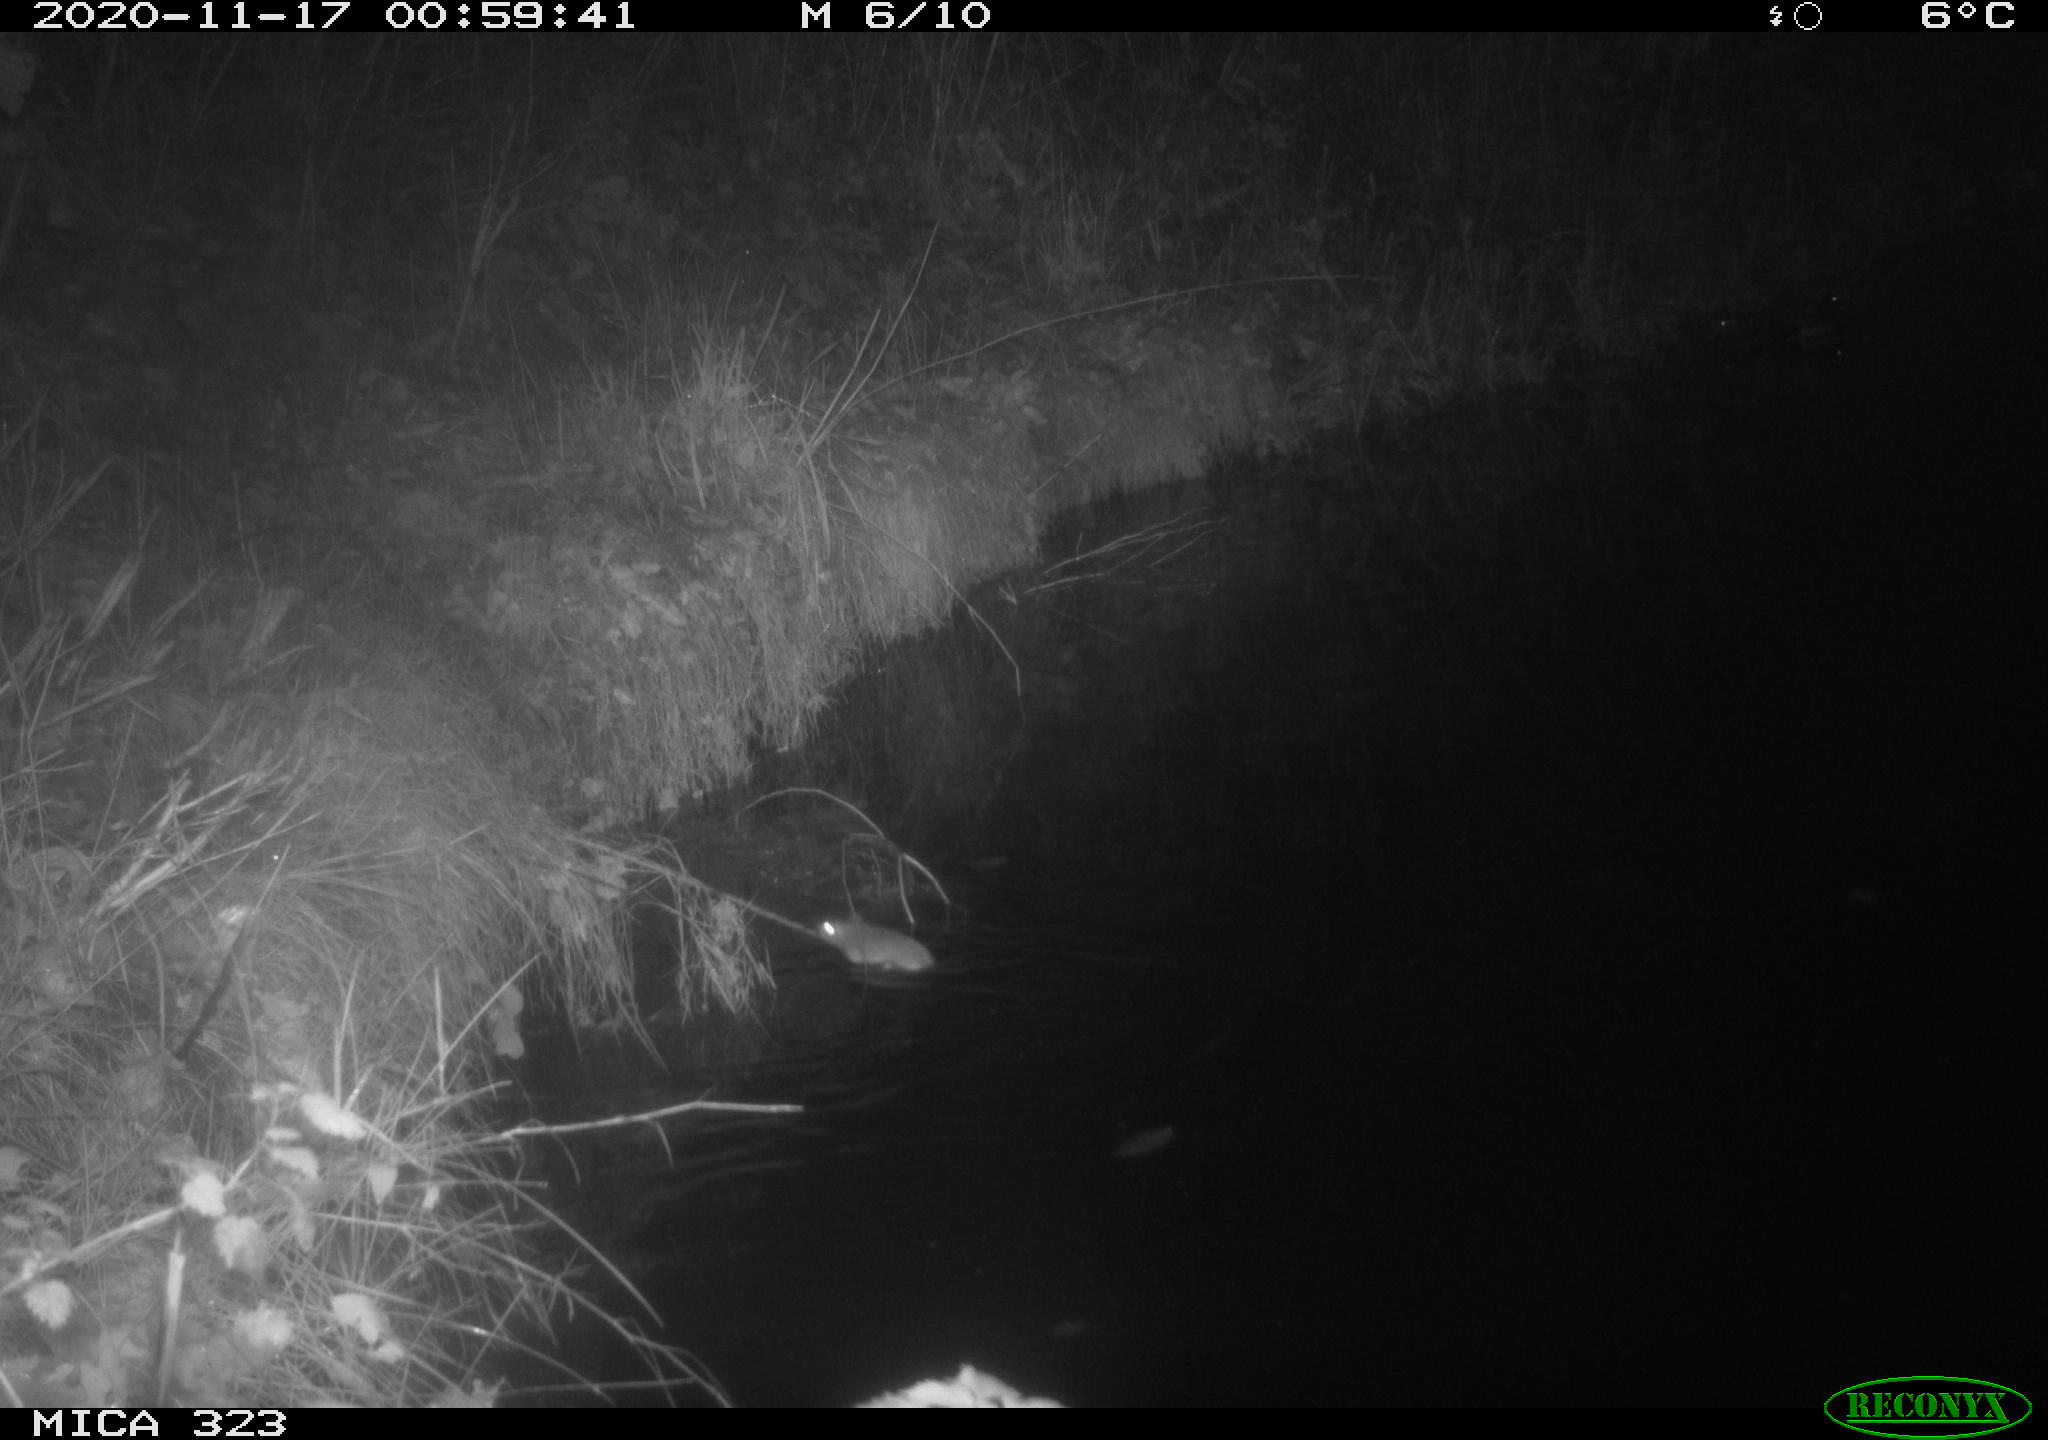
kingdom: Animalia
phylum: Chordata
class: Mammalia
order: Rodentia
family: Muridae
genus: Rattus
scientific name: Rattus norvegicus
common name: Brown rat
